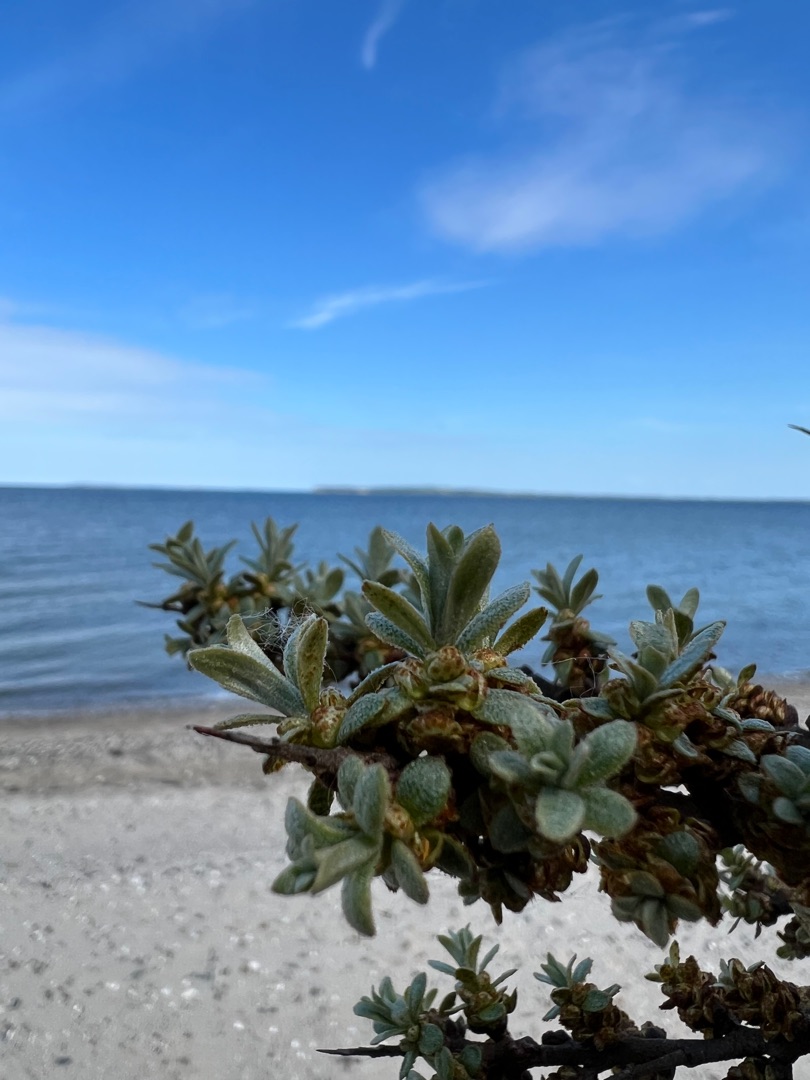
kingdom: Plantae
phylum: Tracheophyta
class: Magnoliopsida
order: Rosales
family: Elaeagnaceae
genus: Hippophae
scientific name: Hippophae rhamnoides
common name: Havtorn
